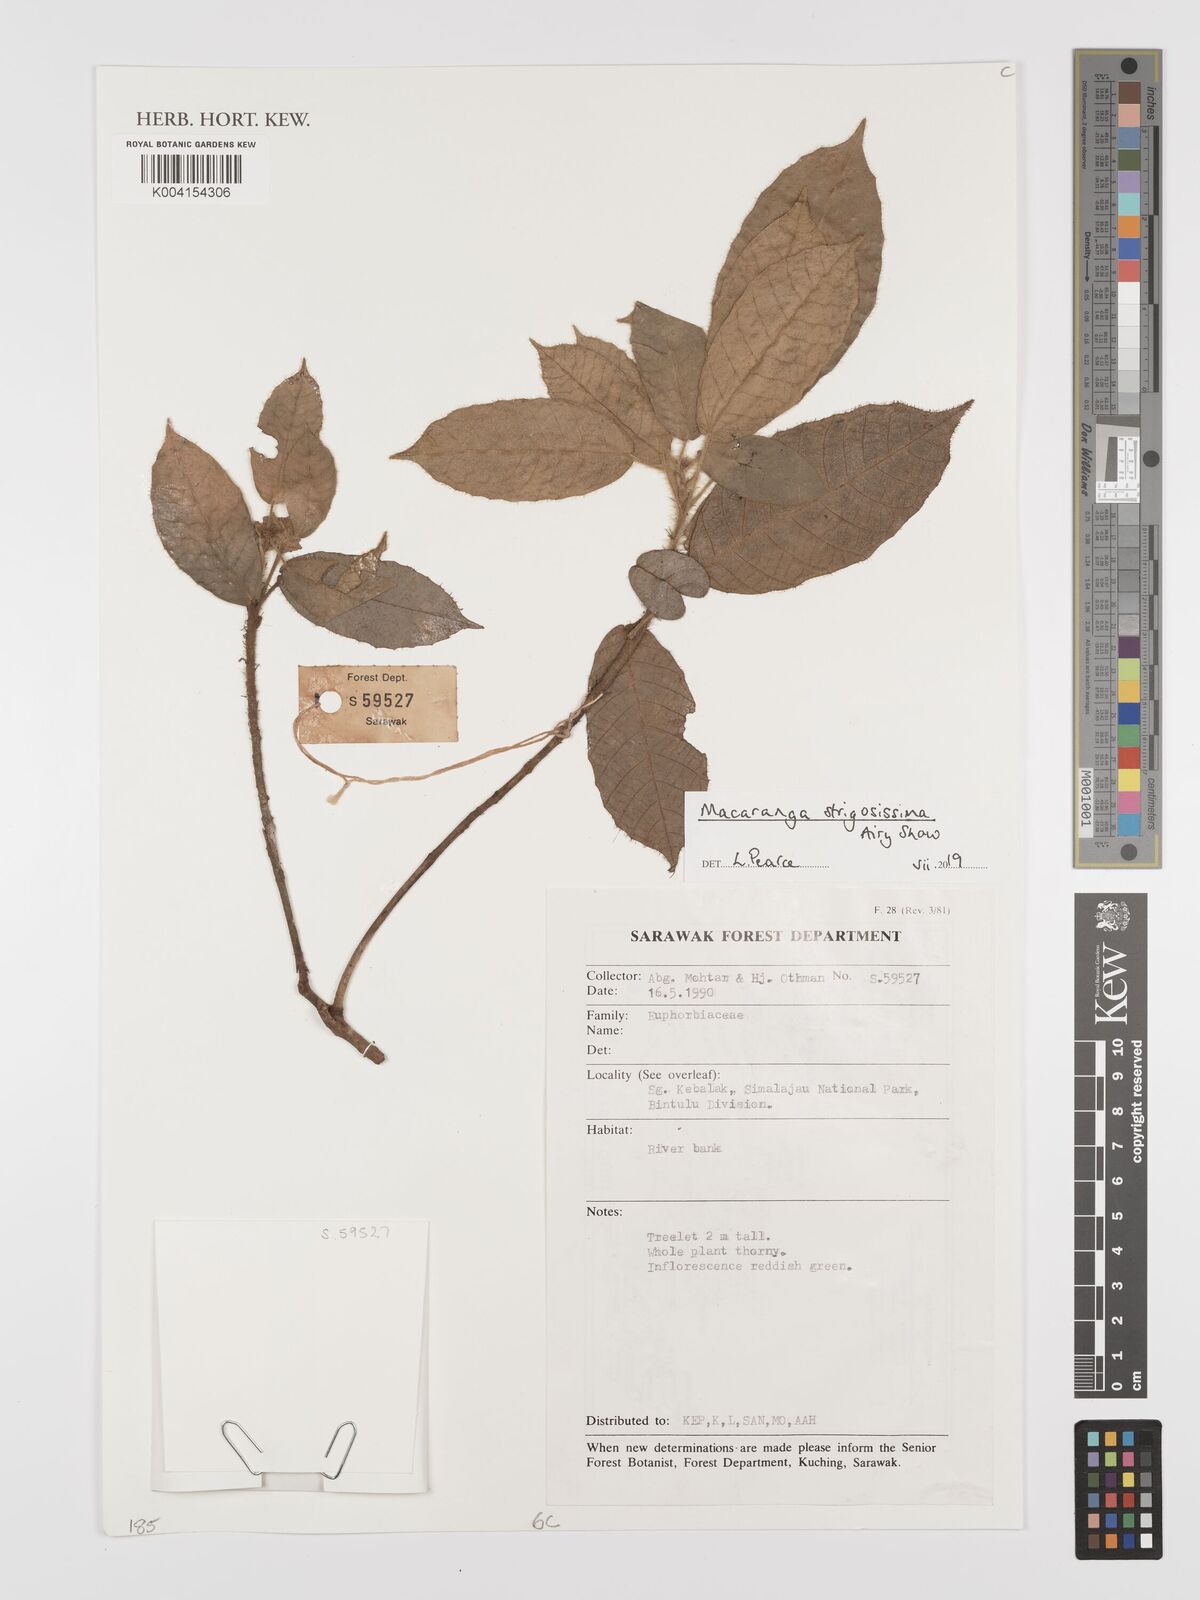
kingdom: Plantae
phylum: Tracheophyta
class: Magnoliopsida
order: Malpighiales
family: Euphorbiaceae
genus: Macaranga
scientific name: Macaranga strigosissima
